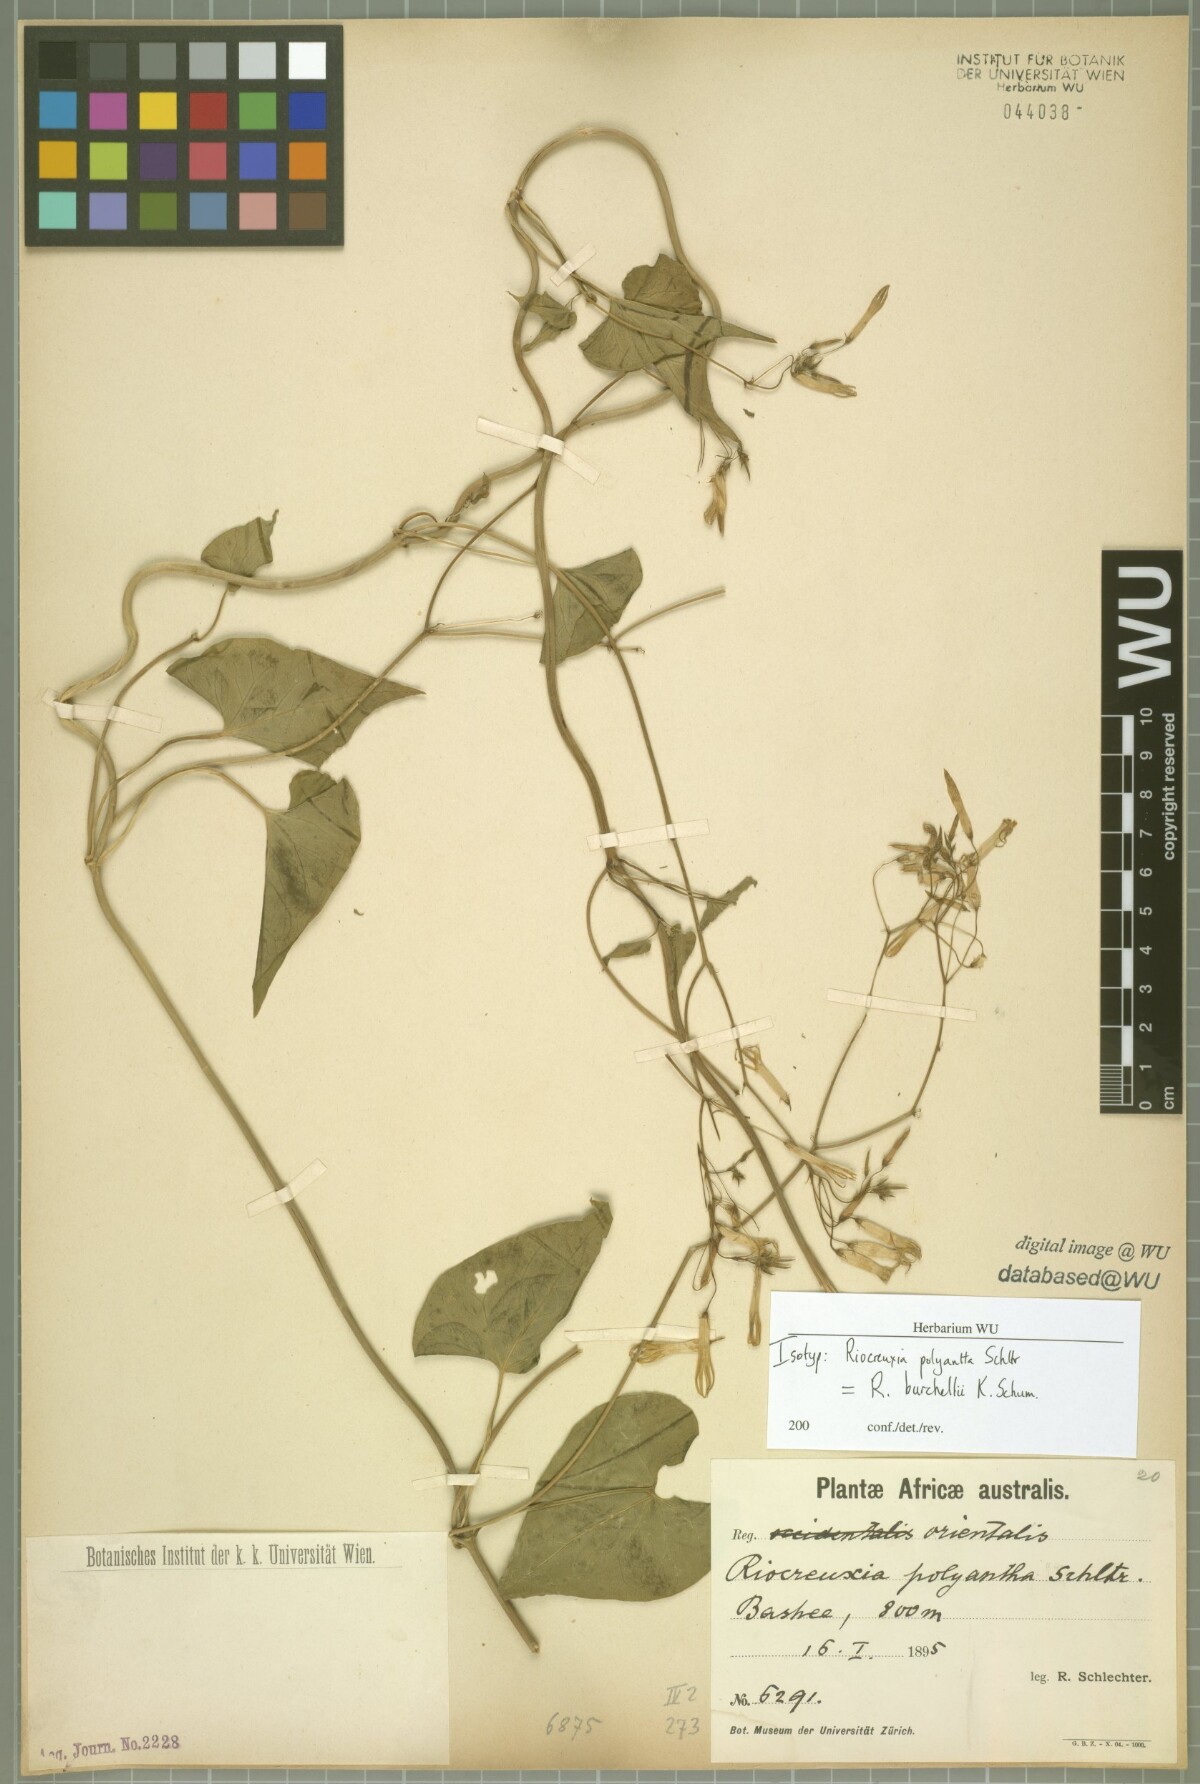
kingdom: Plantae
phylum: Tracheophyta
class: Magnoliopsida
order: Gentianales
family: Apocynaceae
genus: Riocreuxia
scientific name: Riocreuxia polyantha
